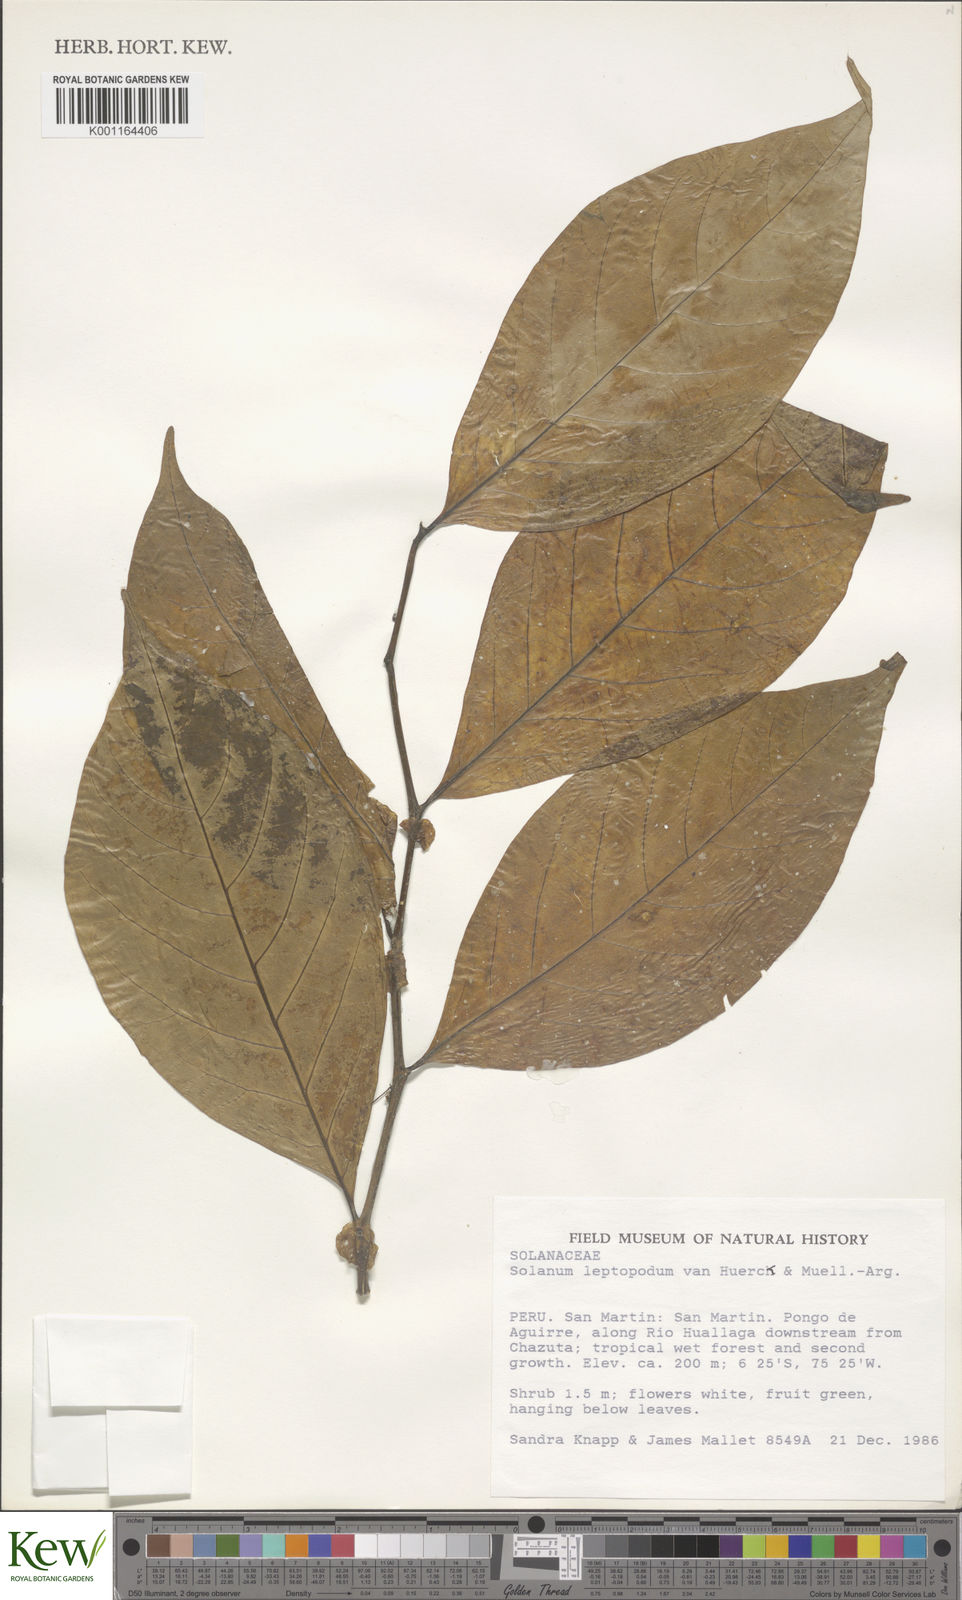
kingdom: Plantae
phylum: Tracheophyta
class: Magnoliopsida
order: Solanales
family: Solanaceae
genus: Solanum
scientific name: Solanum leptopodum
